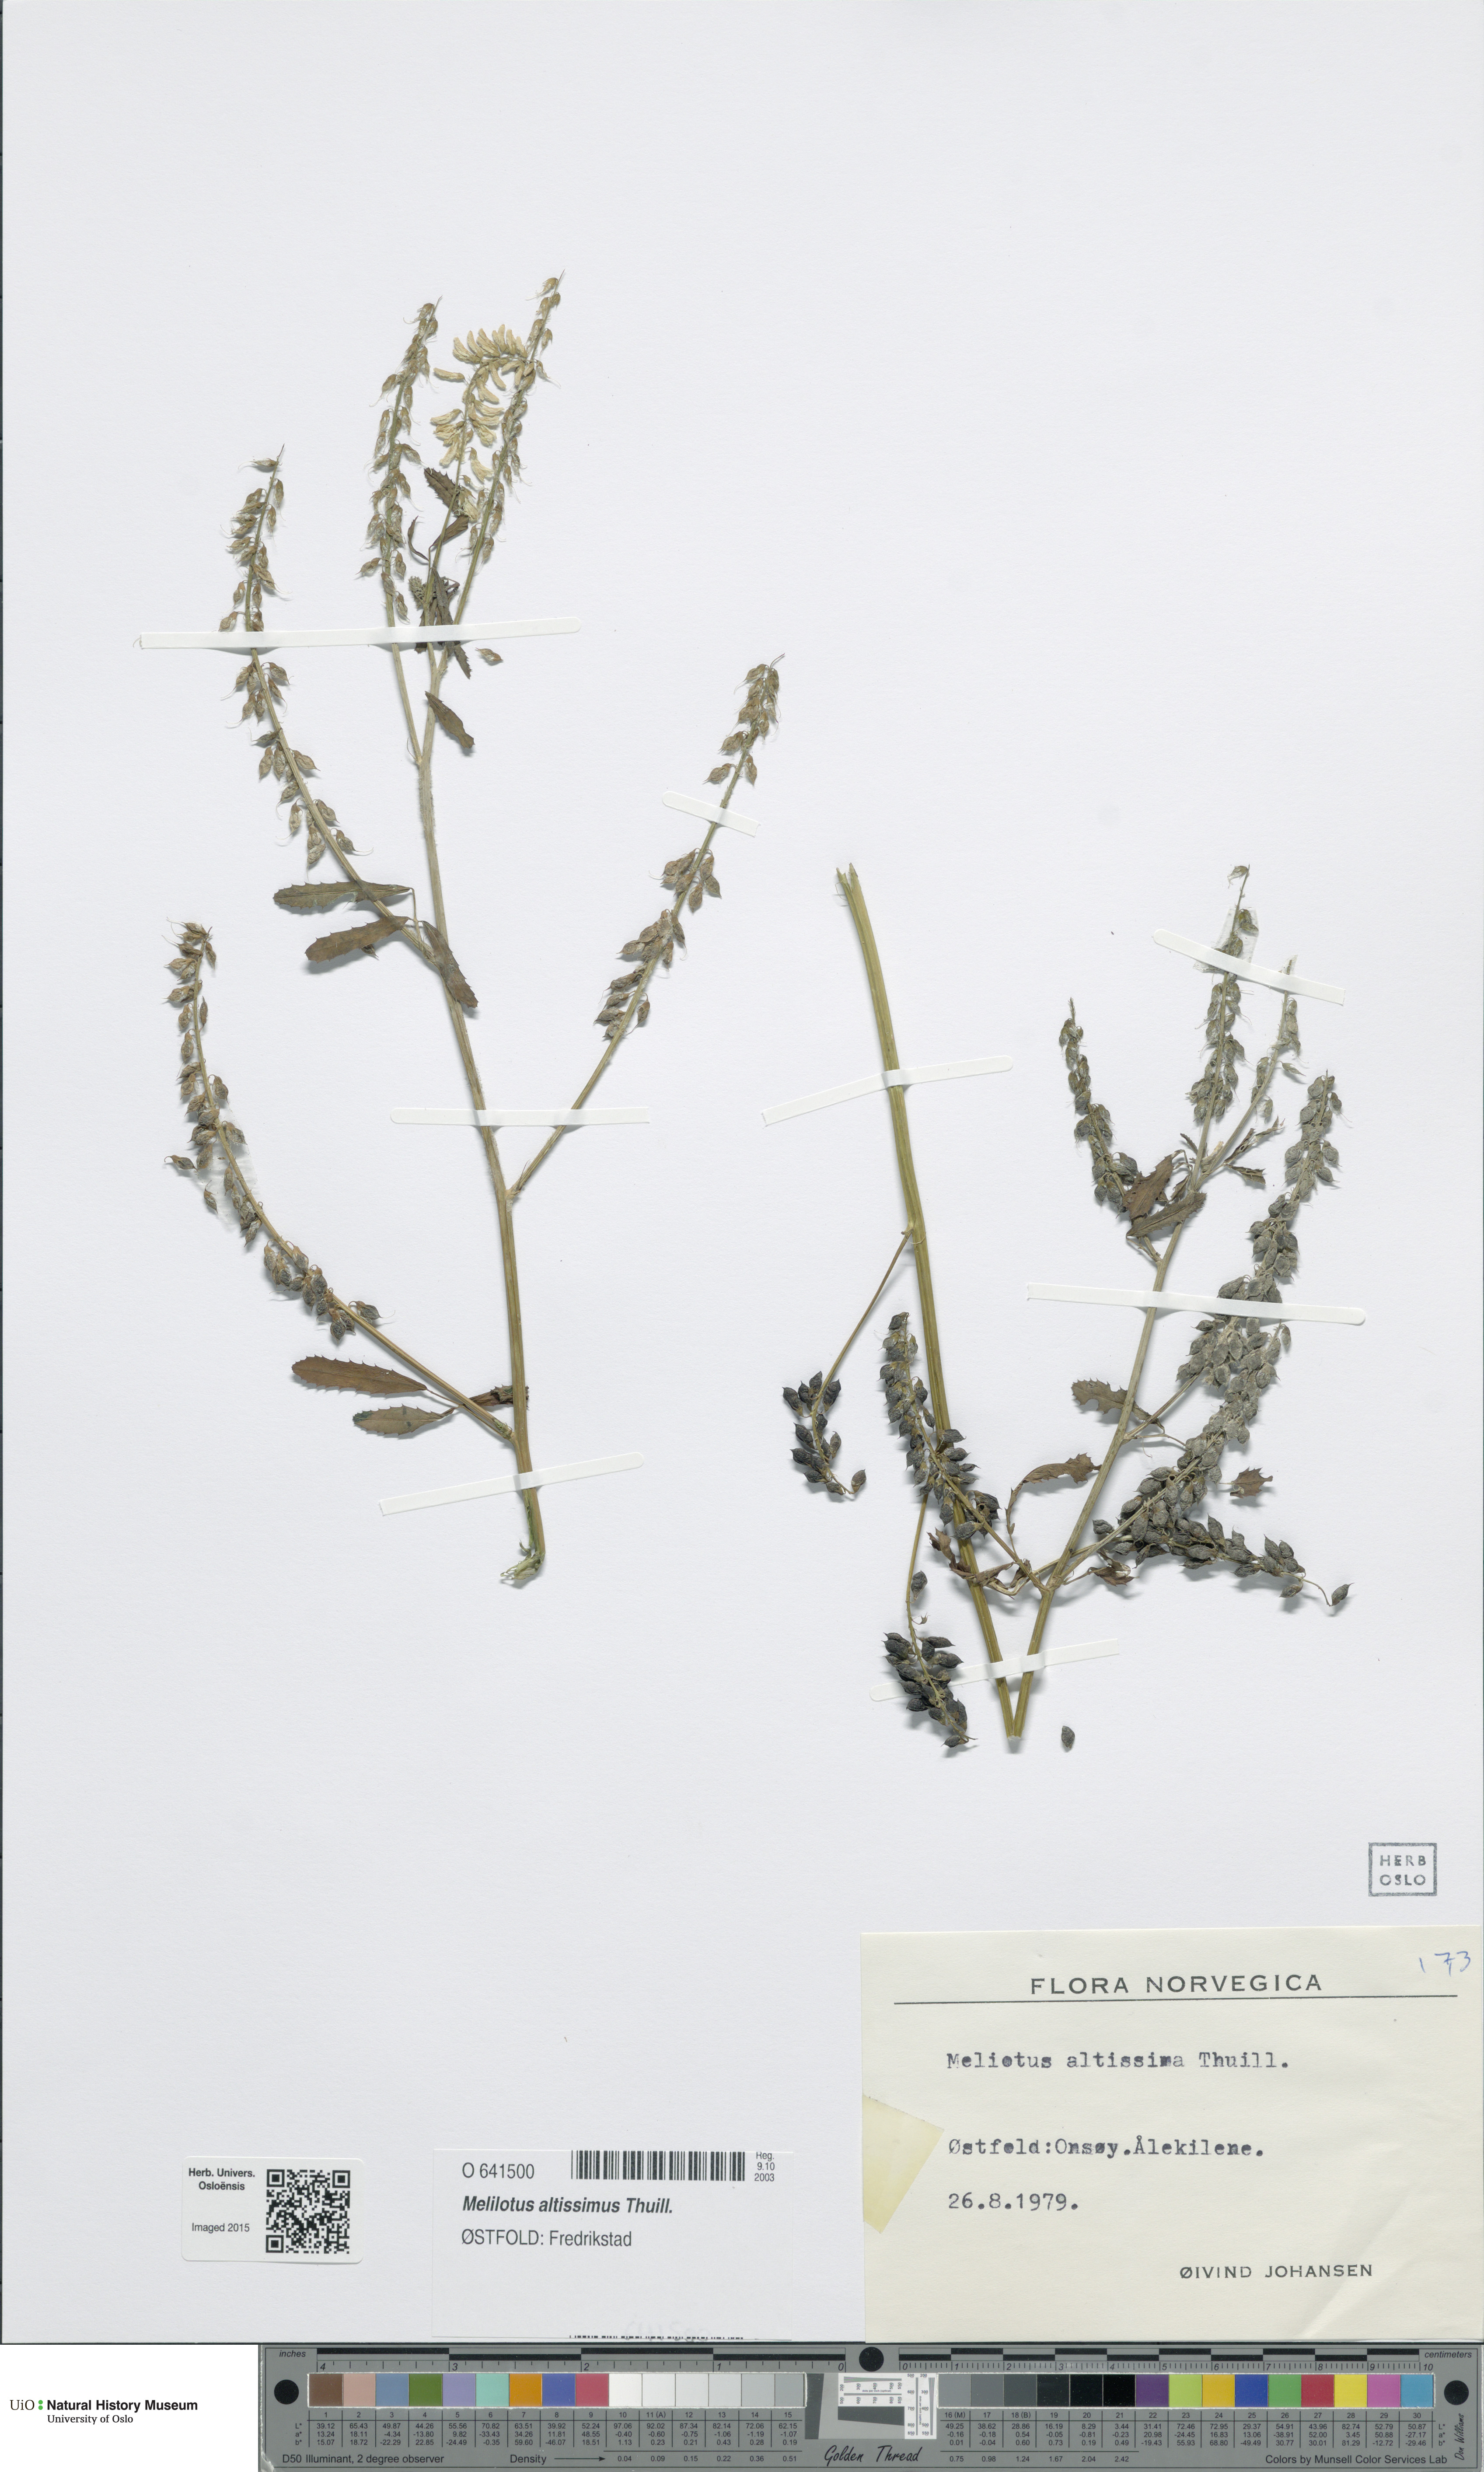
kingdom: Plantae
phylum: Tracheophyta
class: Magnoliopsida
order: Fabales
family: Fabaceae
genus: Melilotus
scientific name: Melilotus altissimus
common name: Tall melilot
